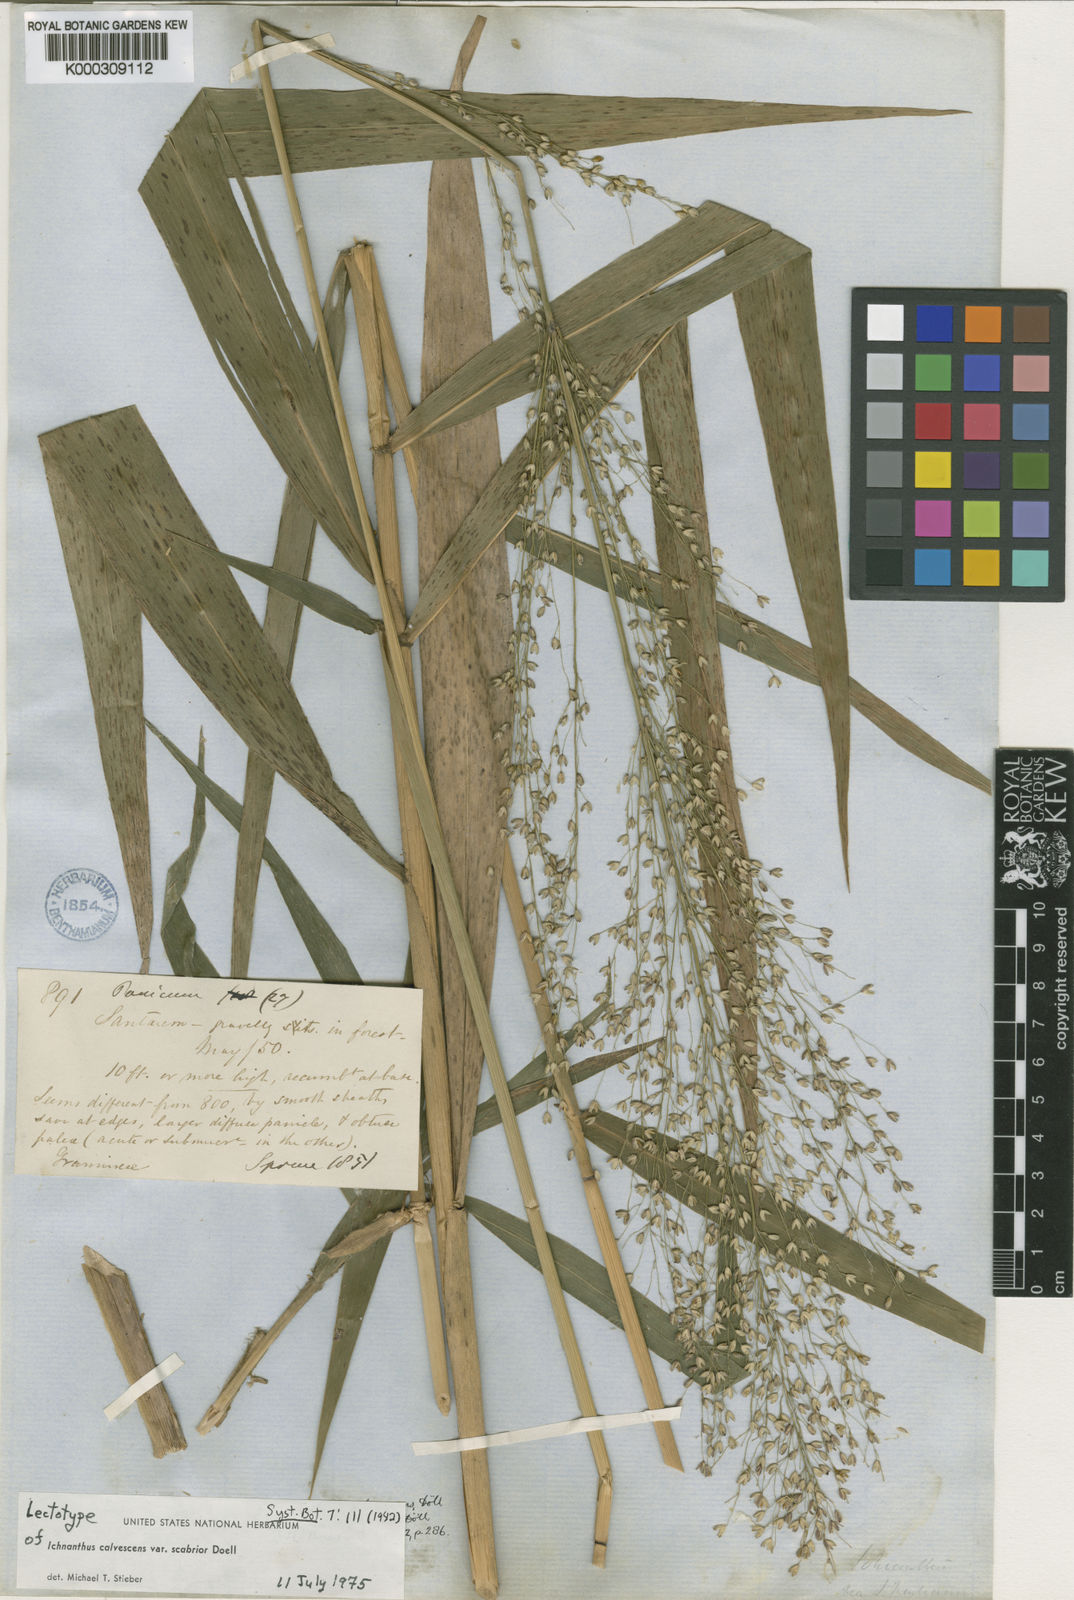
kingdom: Plantae
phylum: Tracheophyta
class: Liliopsida
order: Poales
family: Poaceae
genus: Ichnanthus
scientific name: Ichnanthus
